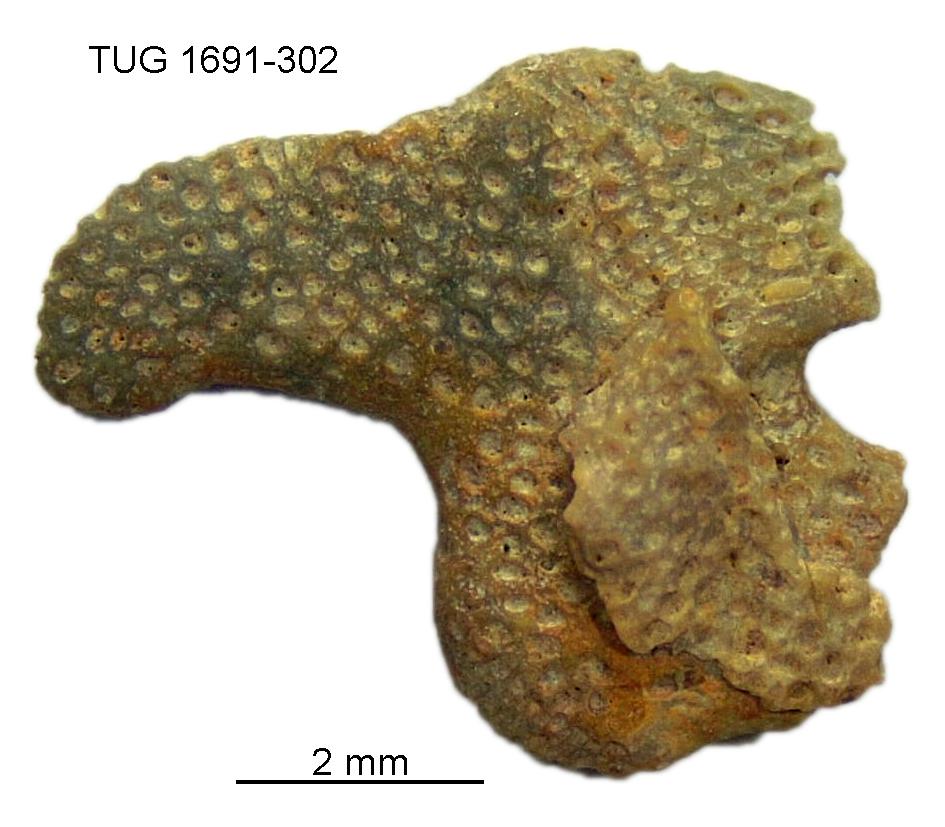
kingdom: Animalia
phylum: Bryozoa
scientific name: Bryozoa
